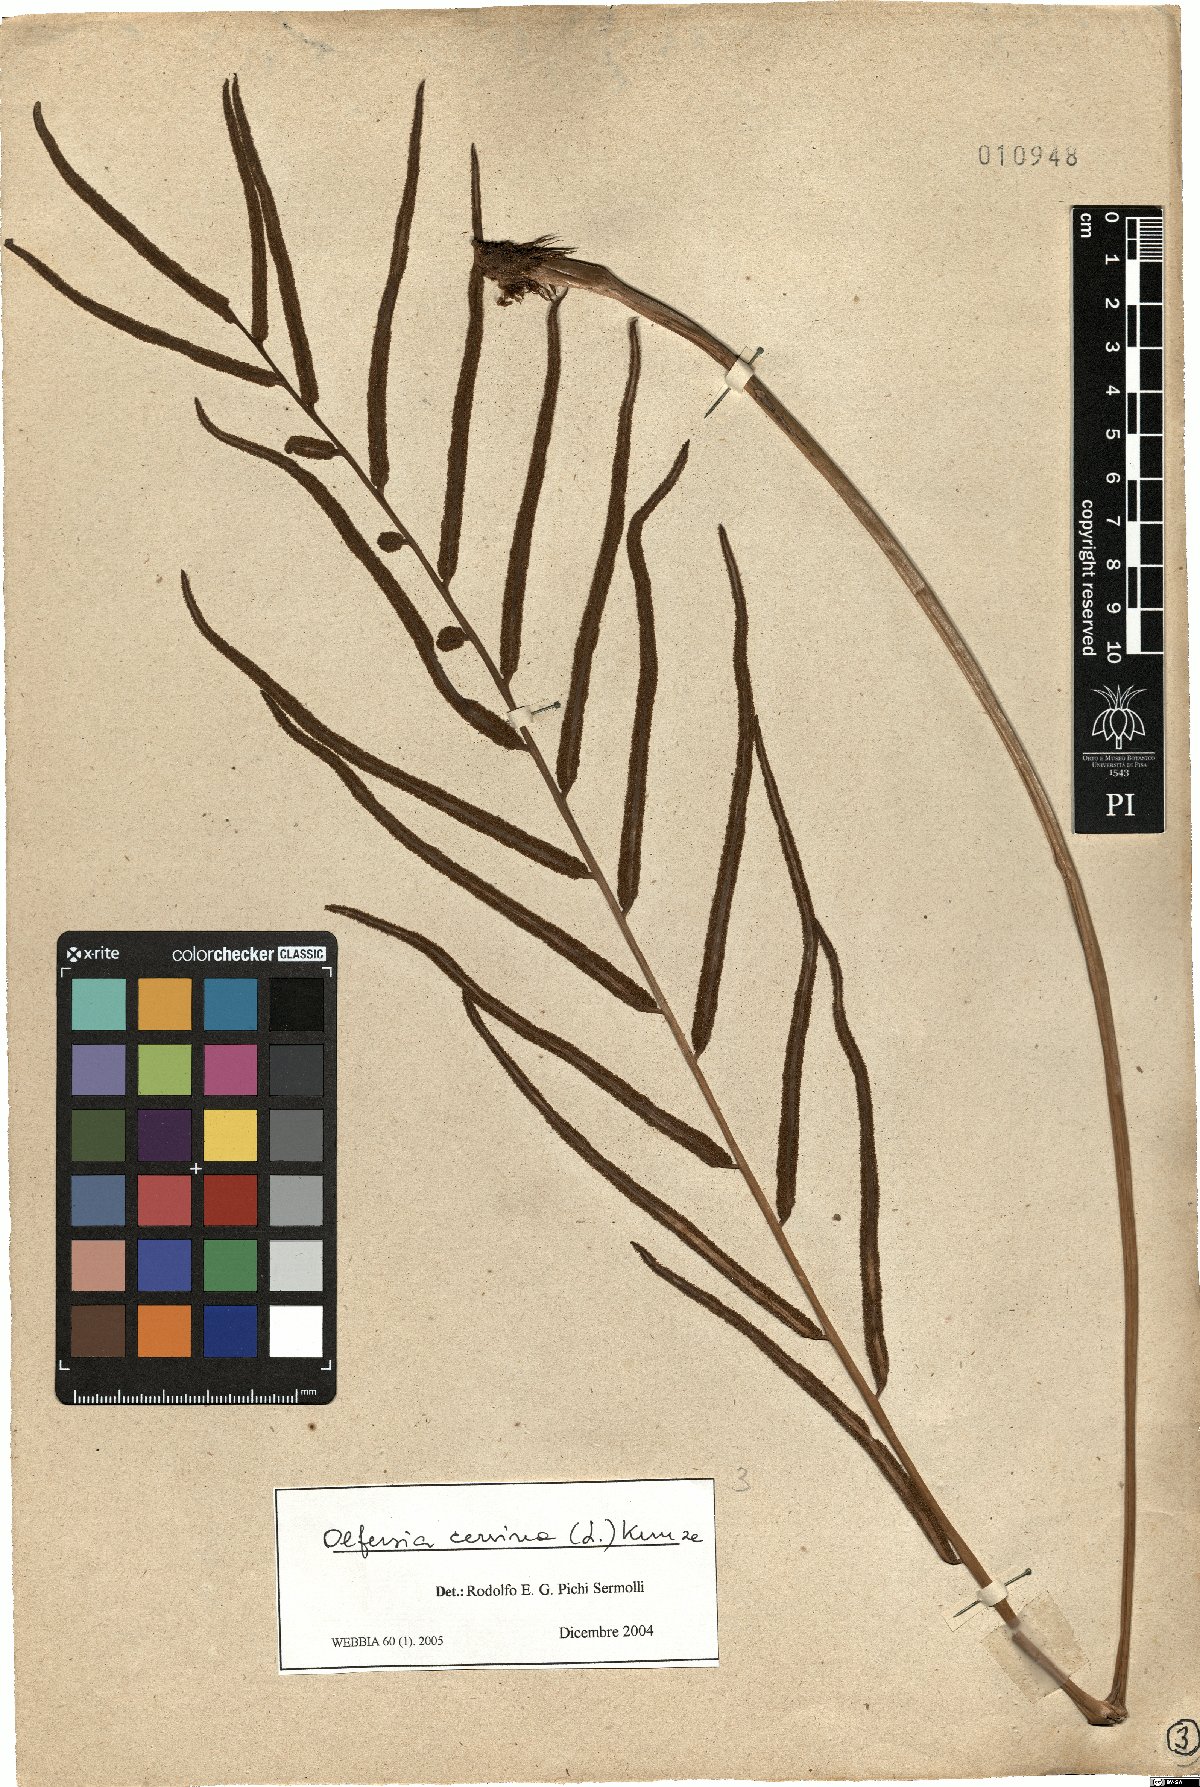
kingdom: Plantae
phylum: Tracheophyta
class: Polypodiopsida
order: Polypodiales
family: Dryopteridaceae
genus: Olfersia
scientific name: Olfersia cervina
